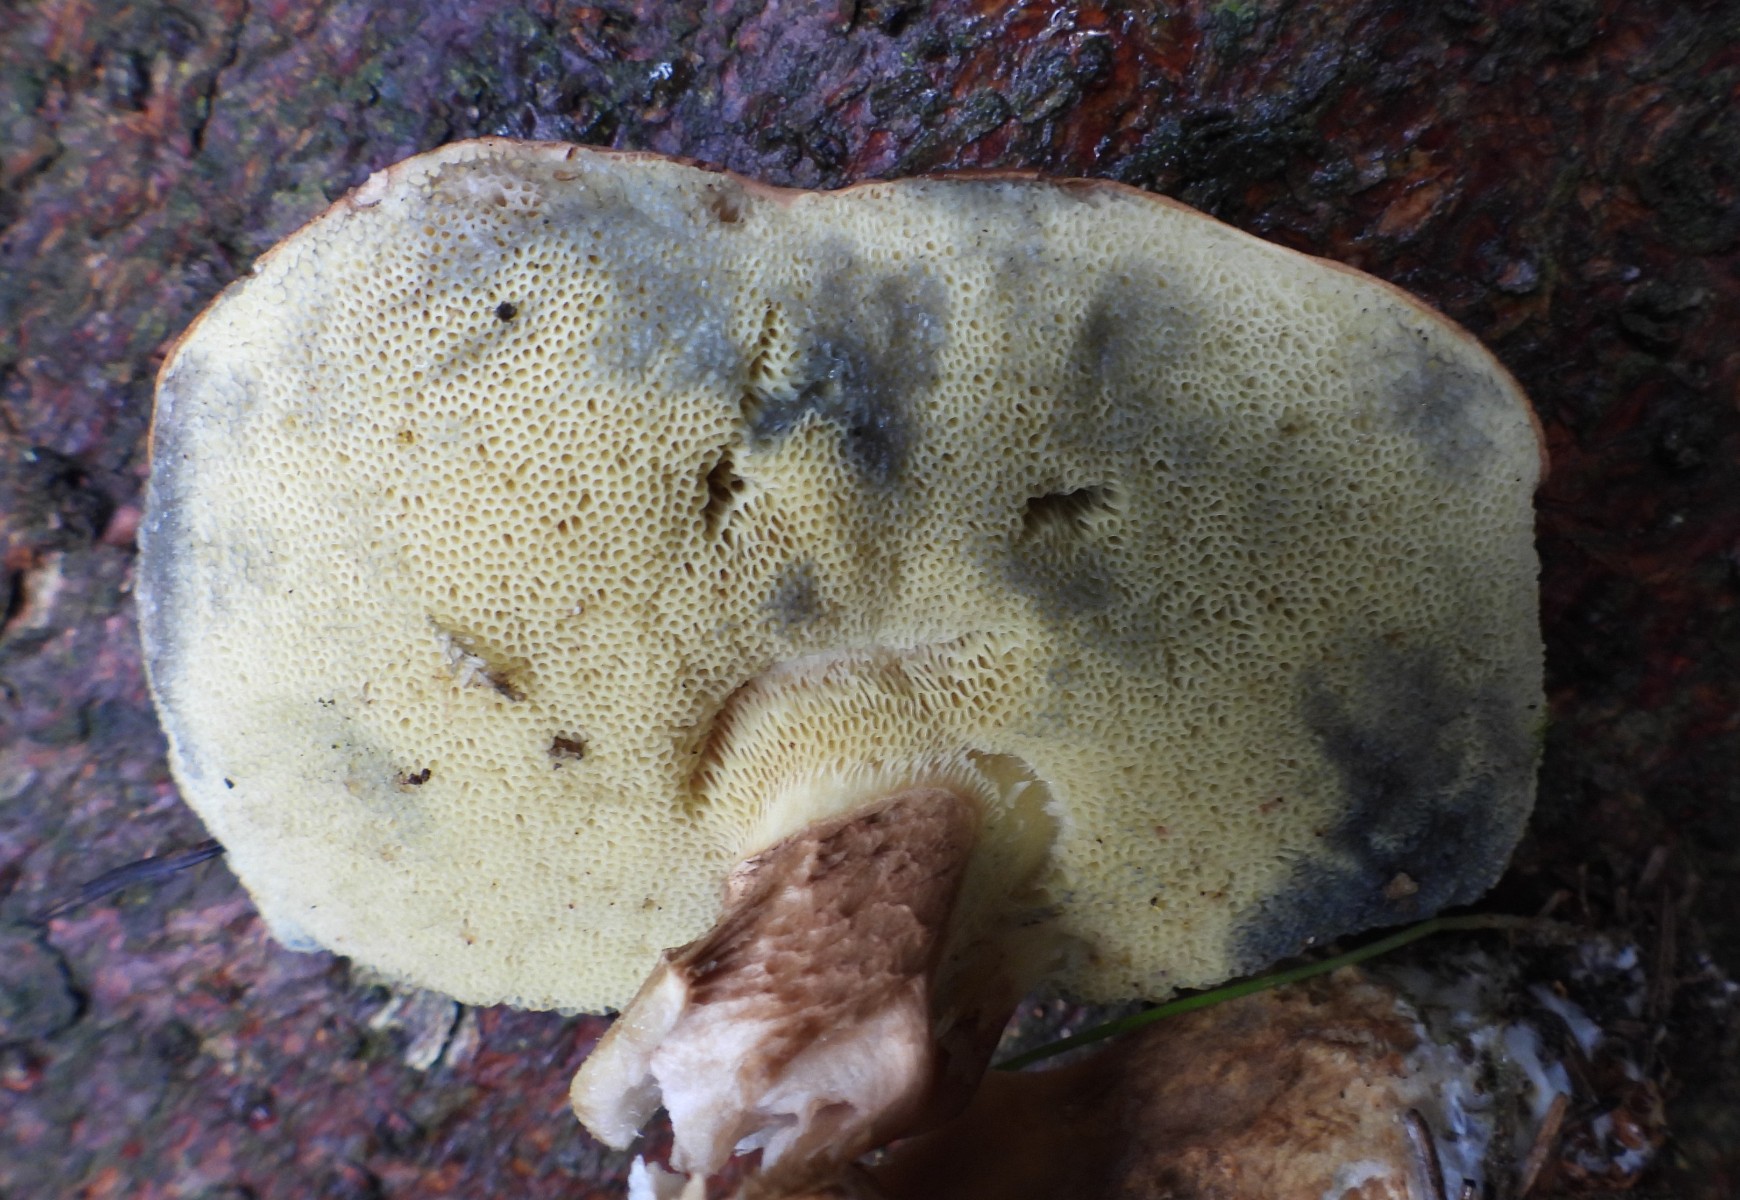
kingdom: Fungi
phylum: Basidiomycota
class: Agaricomycetes
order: Boletales
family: Boletaceae
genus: Imleria
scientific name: Imleria badia
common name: brunstokket rørhat
